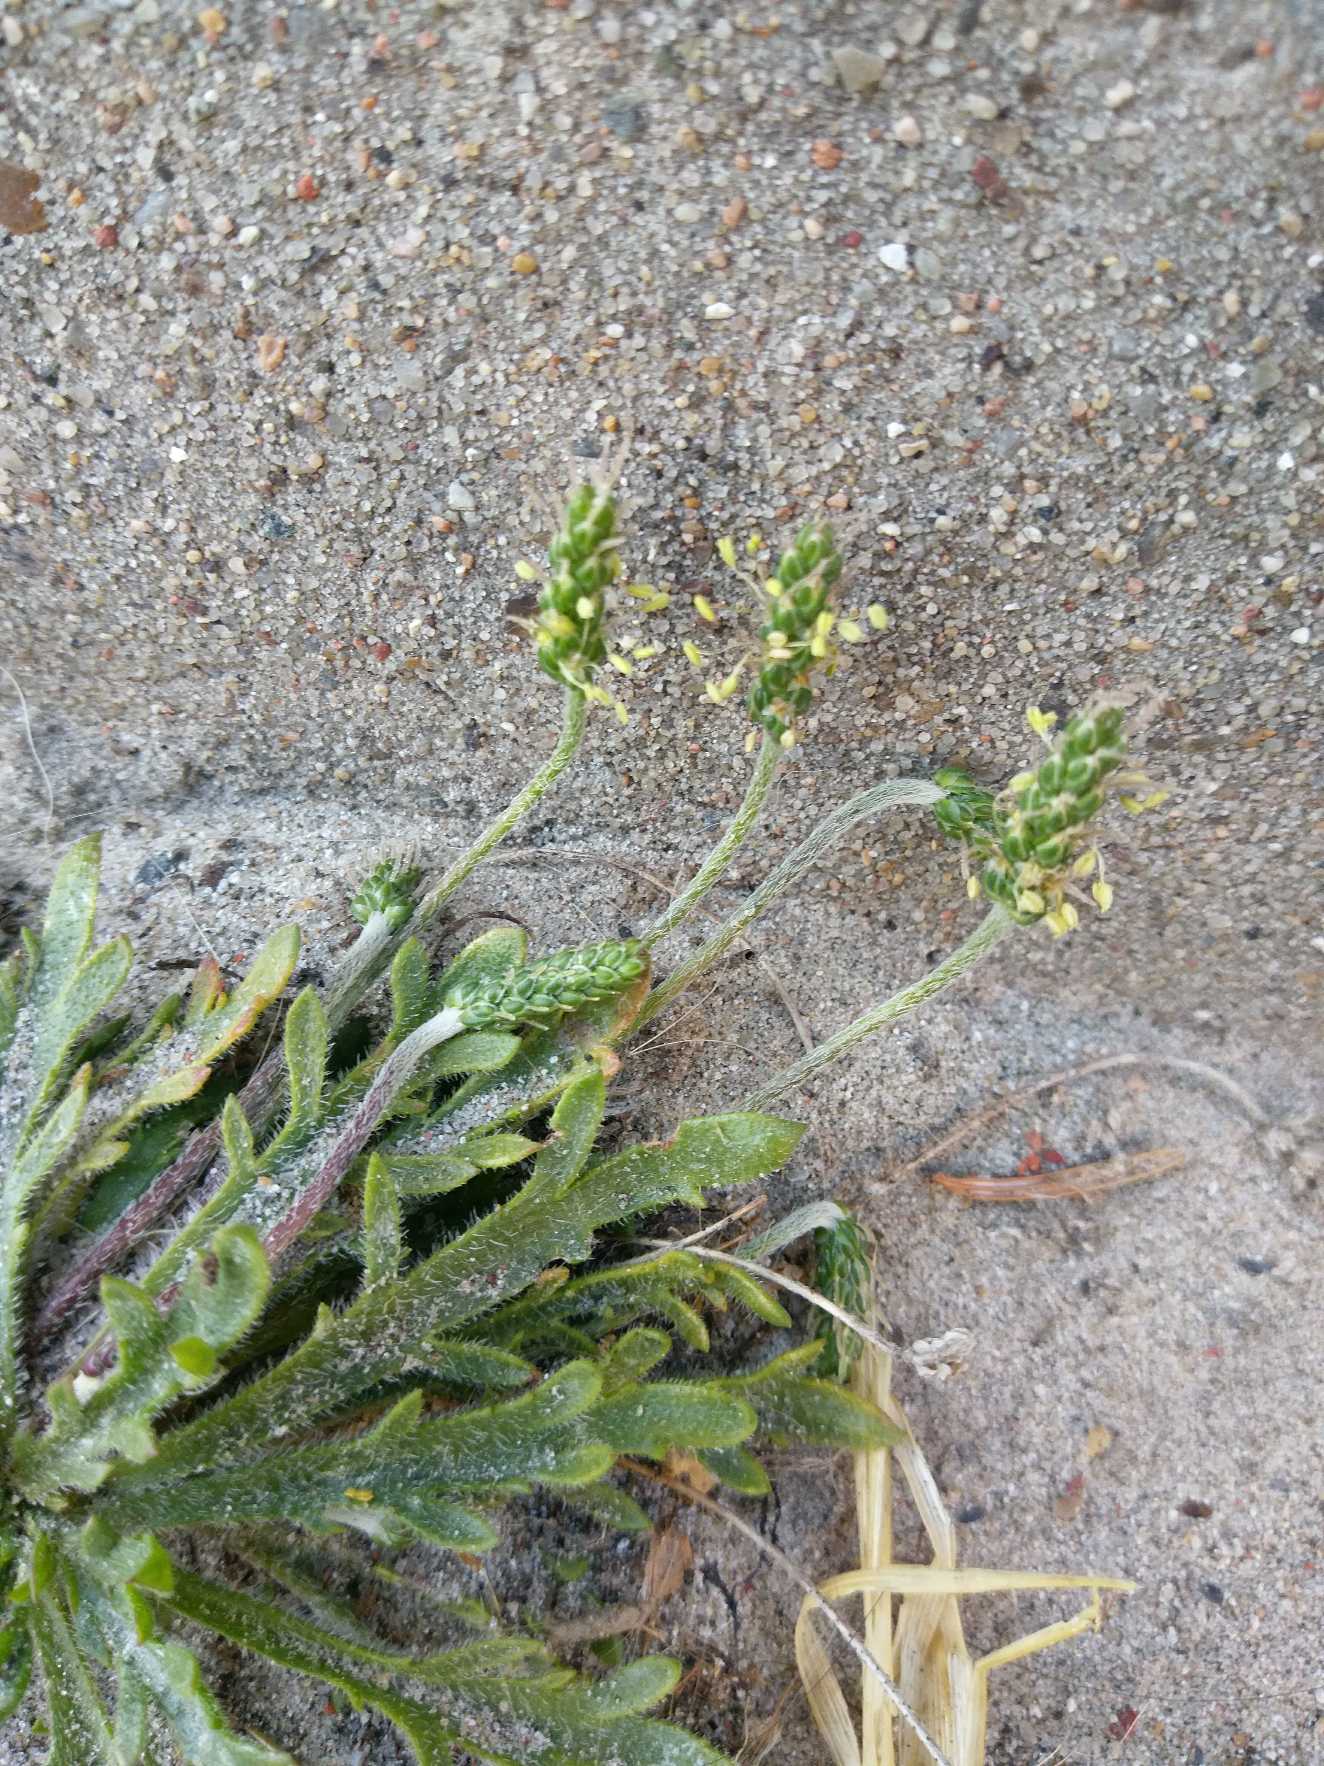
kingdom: Plantae
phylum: Tracheophyta
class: Magnoliopsida
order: Lamiales
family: Plantaginaceae
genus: Plantago
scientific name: Plantago coronopus
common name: Fliget vejbred
